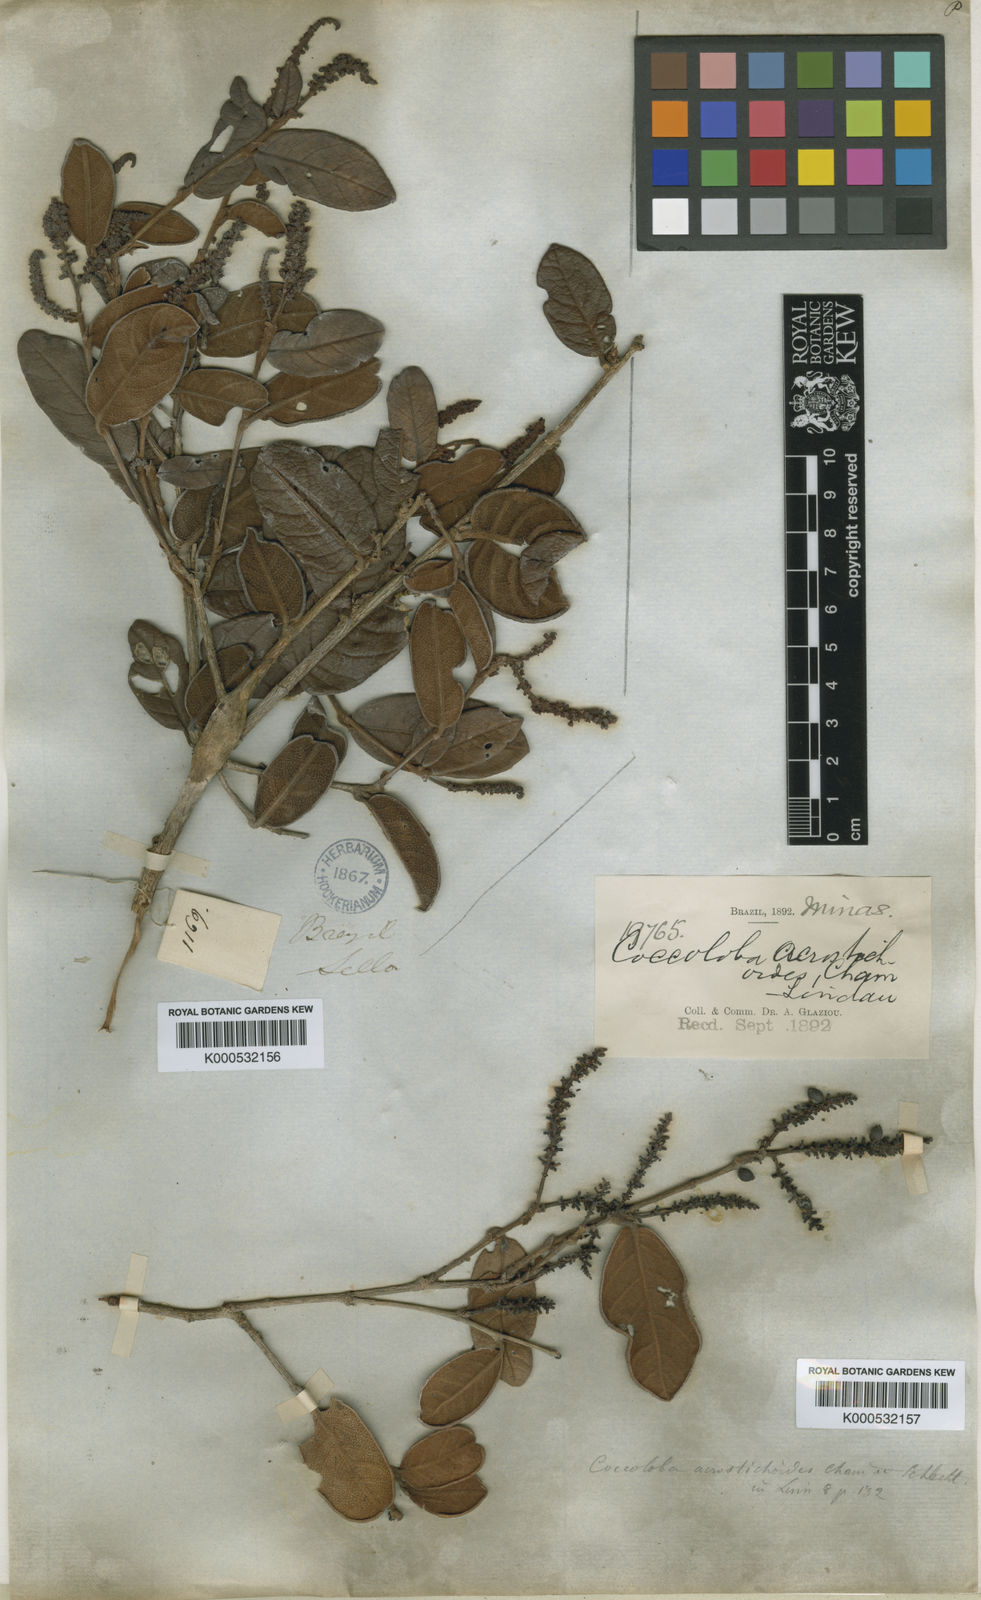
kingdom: Plantae
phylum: Tracheophyta
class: Magnoliopsida
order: Caryophyllales
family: Polygonaceae
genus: Coccoloba
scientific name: Coccoloba acrostichoides
